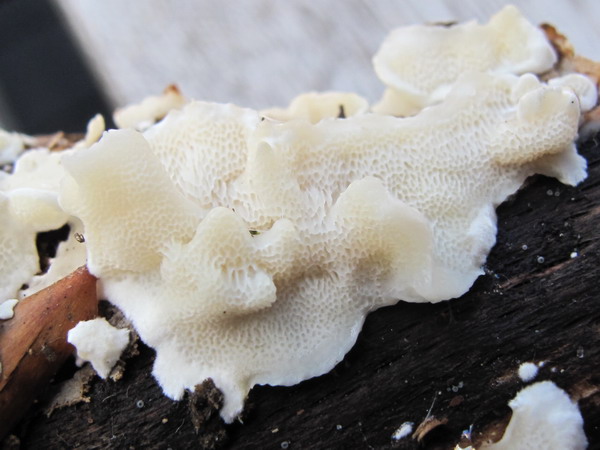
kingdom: Fungi
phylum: Basidiomycota
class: Agaricomycetes
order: Polyporales
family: Steccherinaceae
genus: Antrodiella
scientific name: Antrodiella faginea
